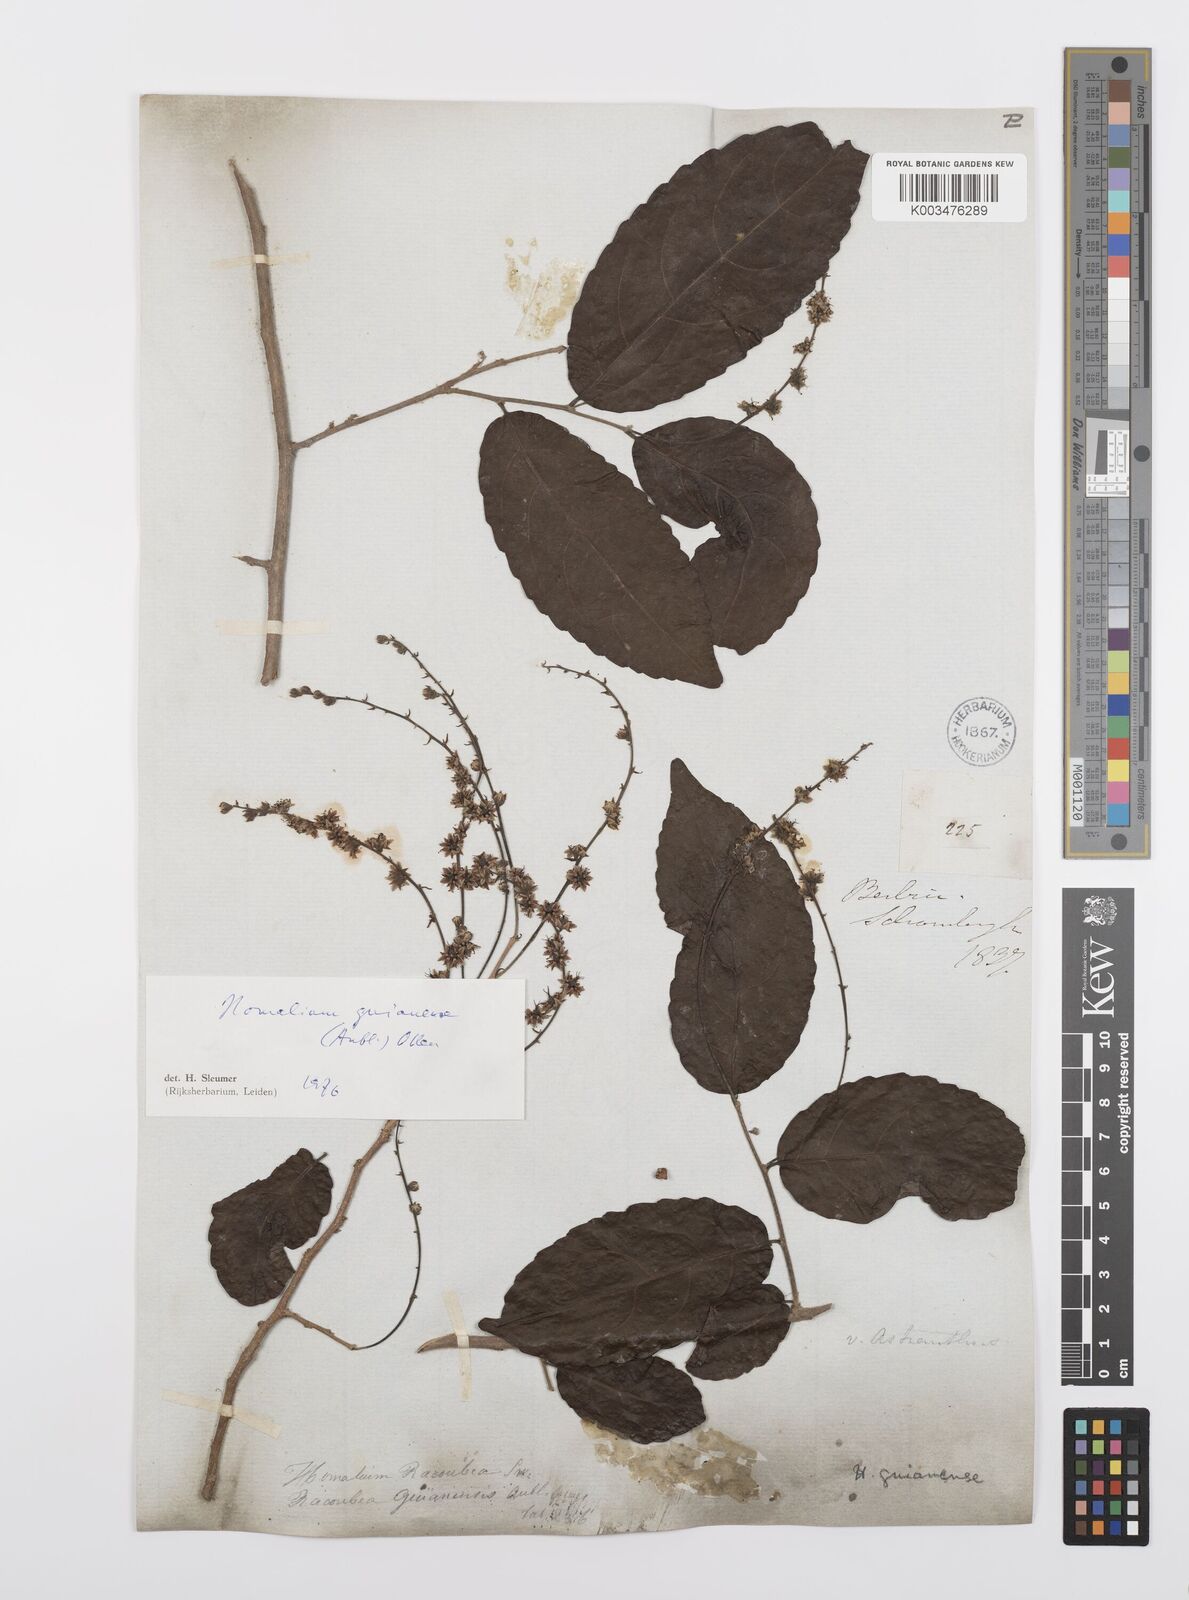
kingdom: Plantae
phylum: Tracheophyta
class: Magnoliopsida
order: Malpighiales
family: Salicaceae
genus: Homalium
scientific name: Homalium guianense
